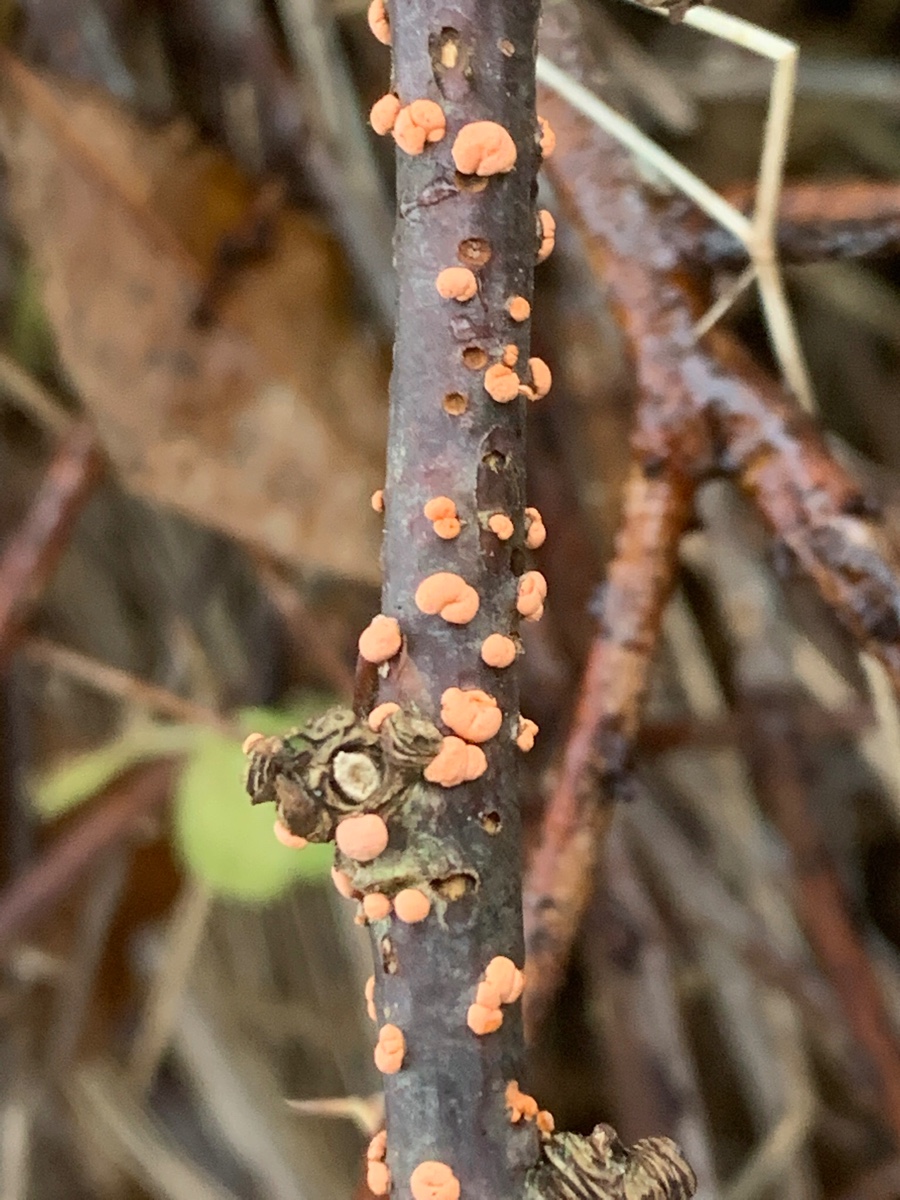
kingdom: Fungi
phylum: Ascomycota
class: Sordariomycetes
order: Hypocreales
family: Nectriaceae
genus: Nectria
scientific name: Nectria cinnabarina
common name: almindelig cinnobersvamp
